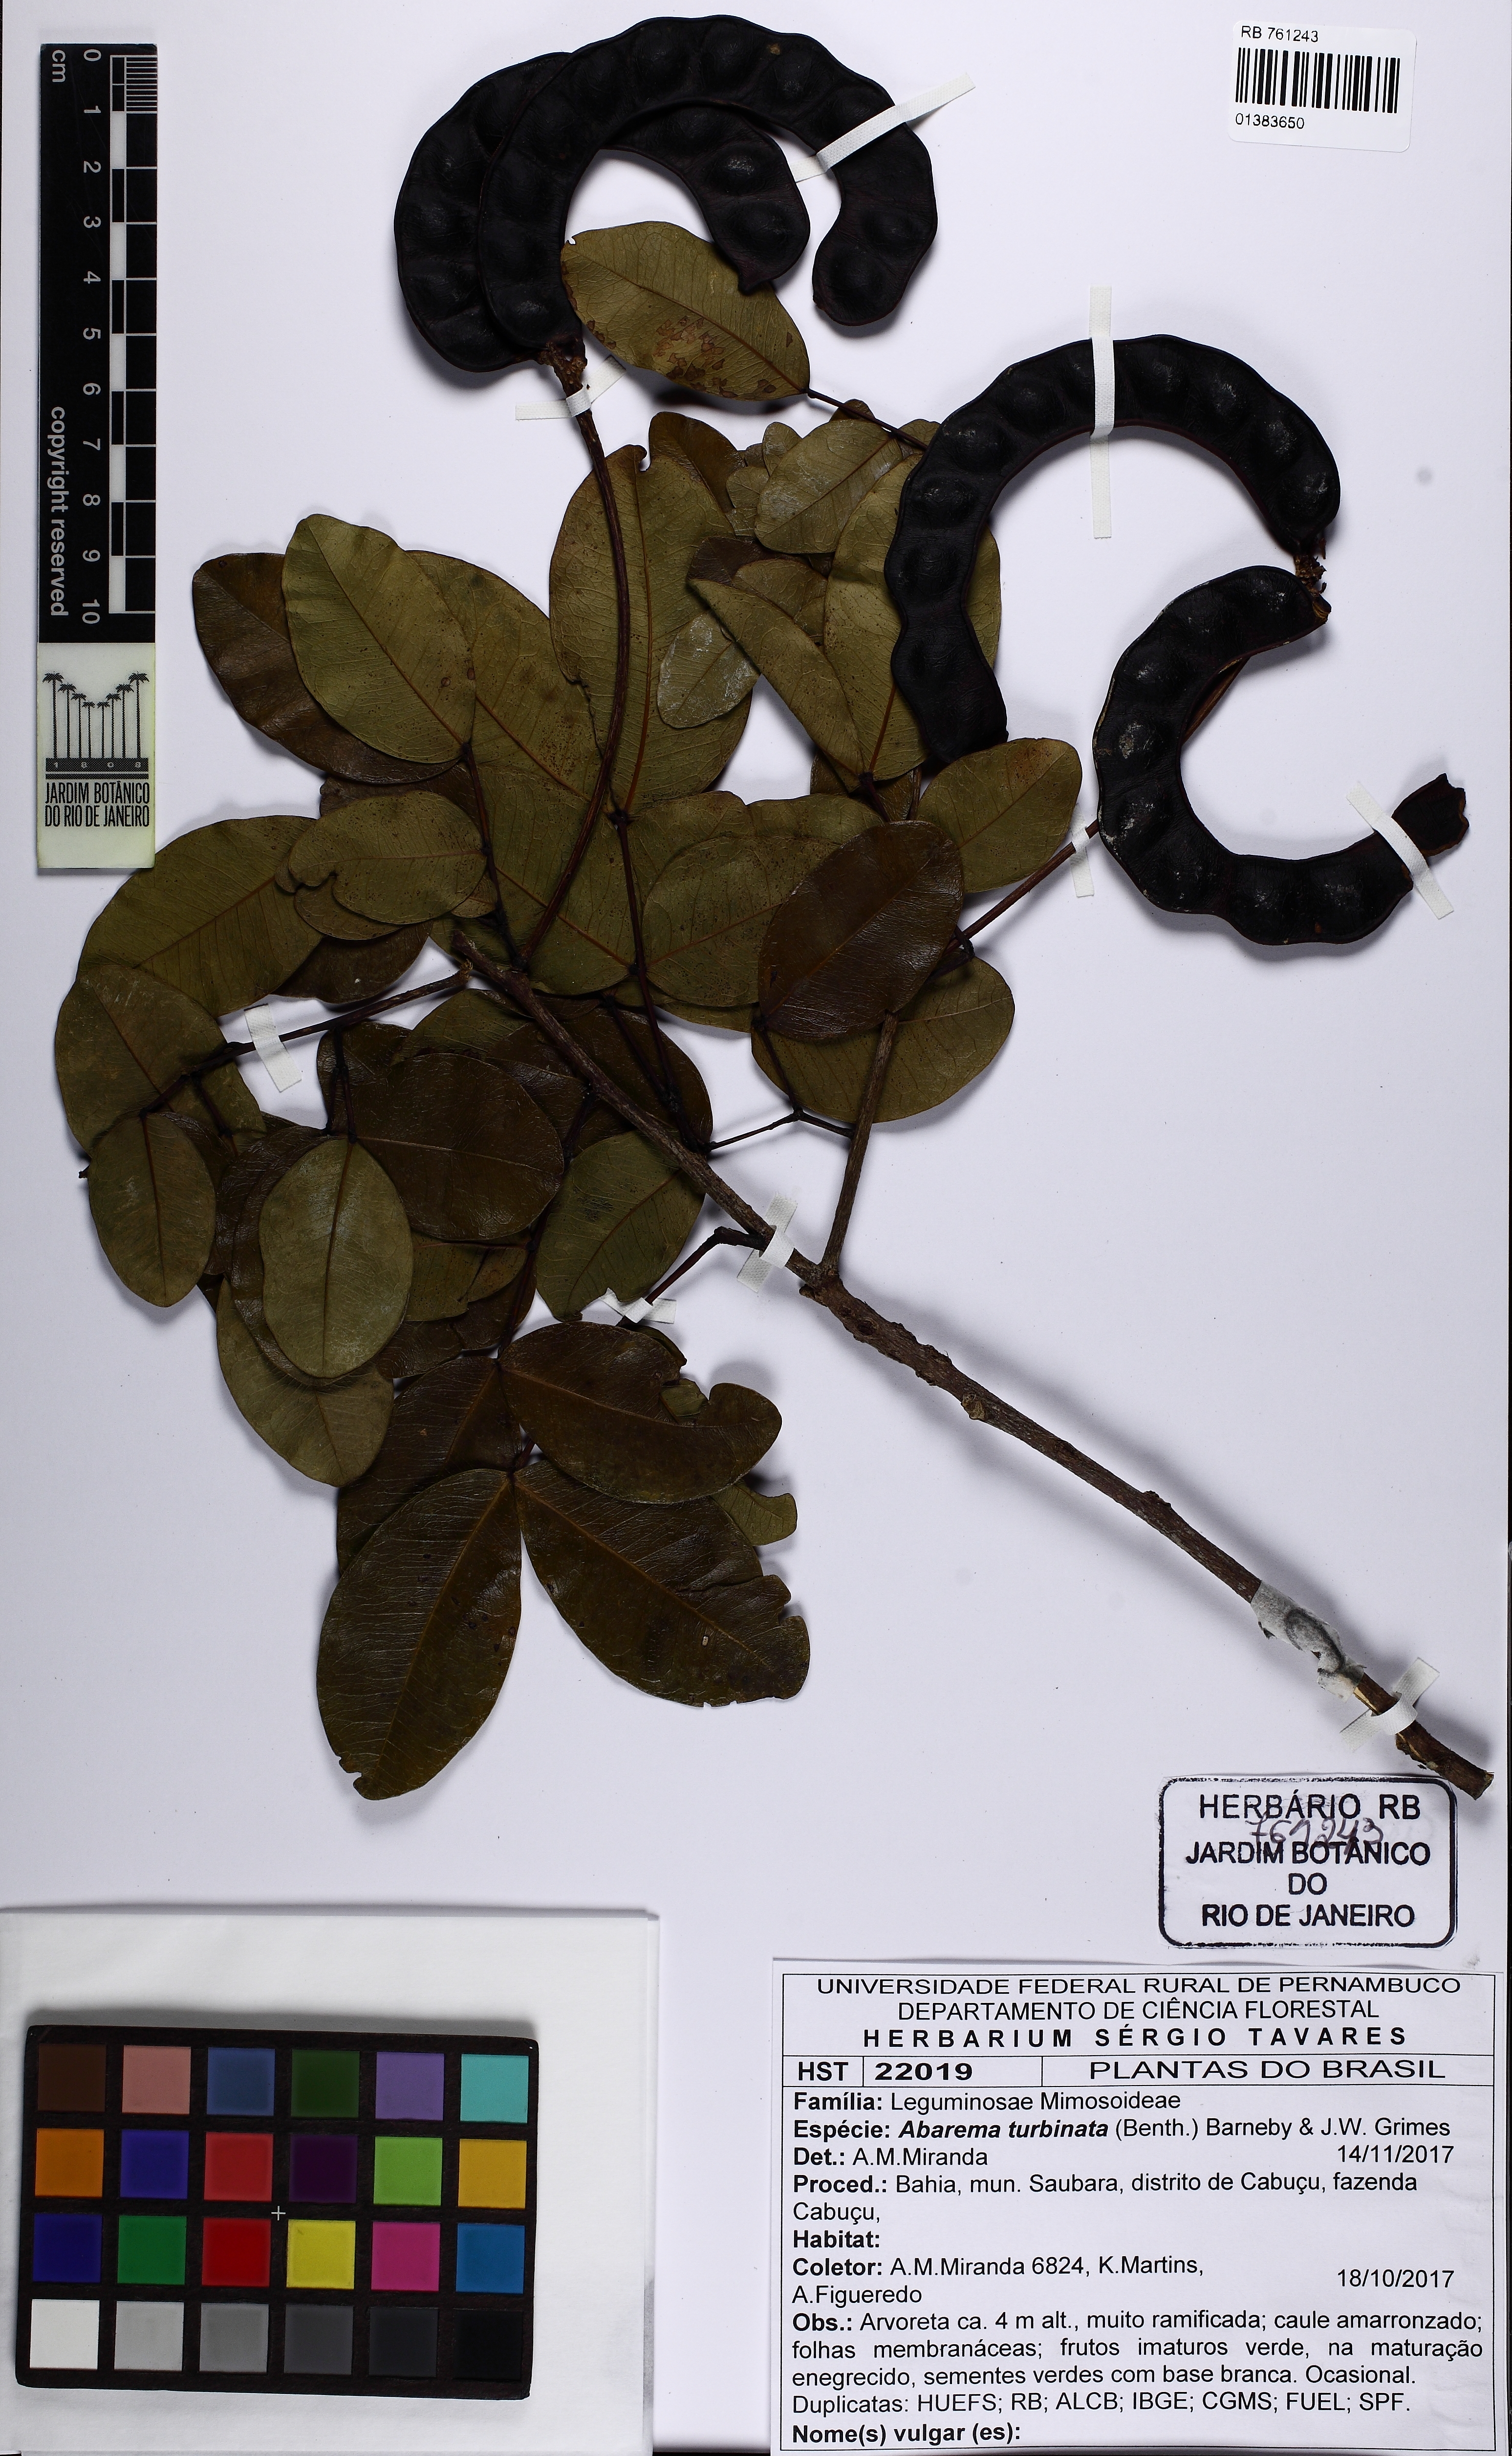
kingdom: Plantae
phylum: Tracheophyta
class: Magnoliopsida
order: Fabales
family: Fabaceae
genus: Jupunba
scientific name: Jupunba turbinata
